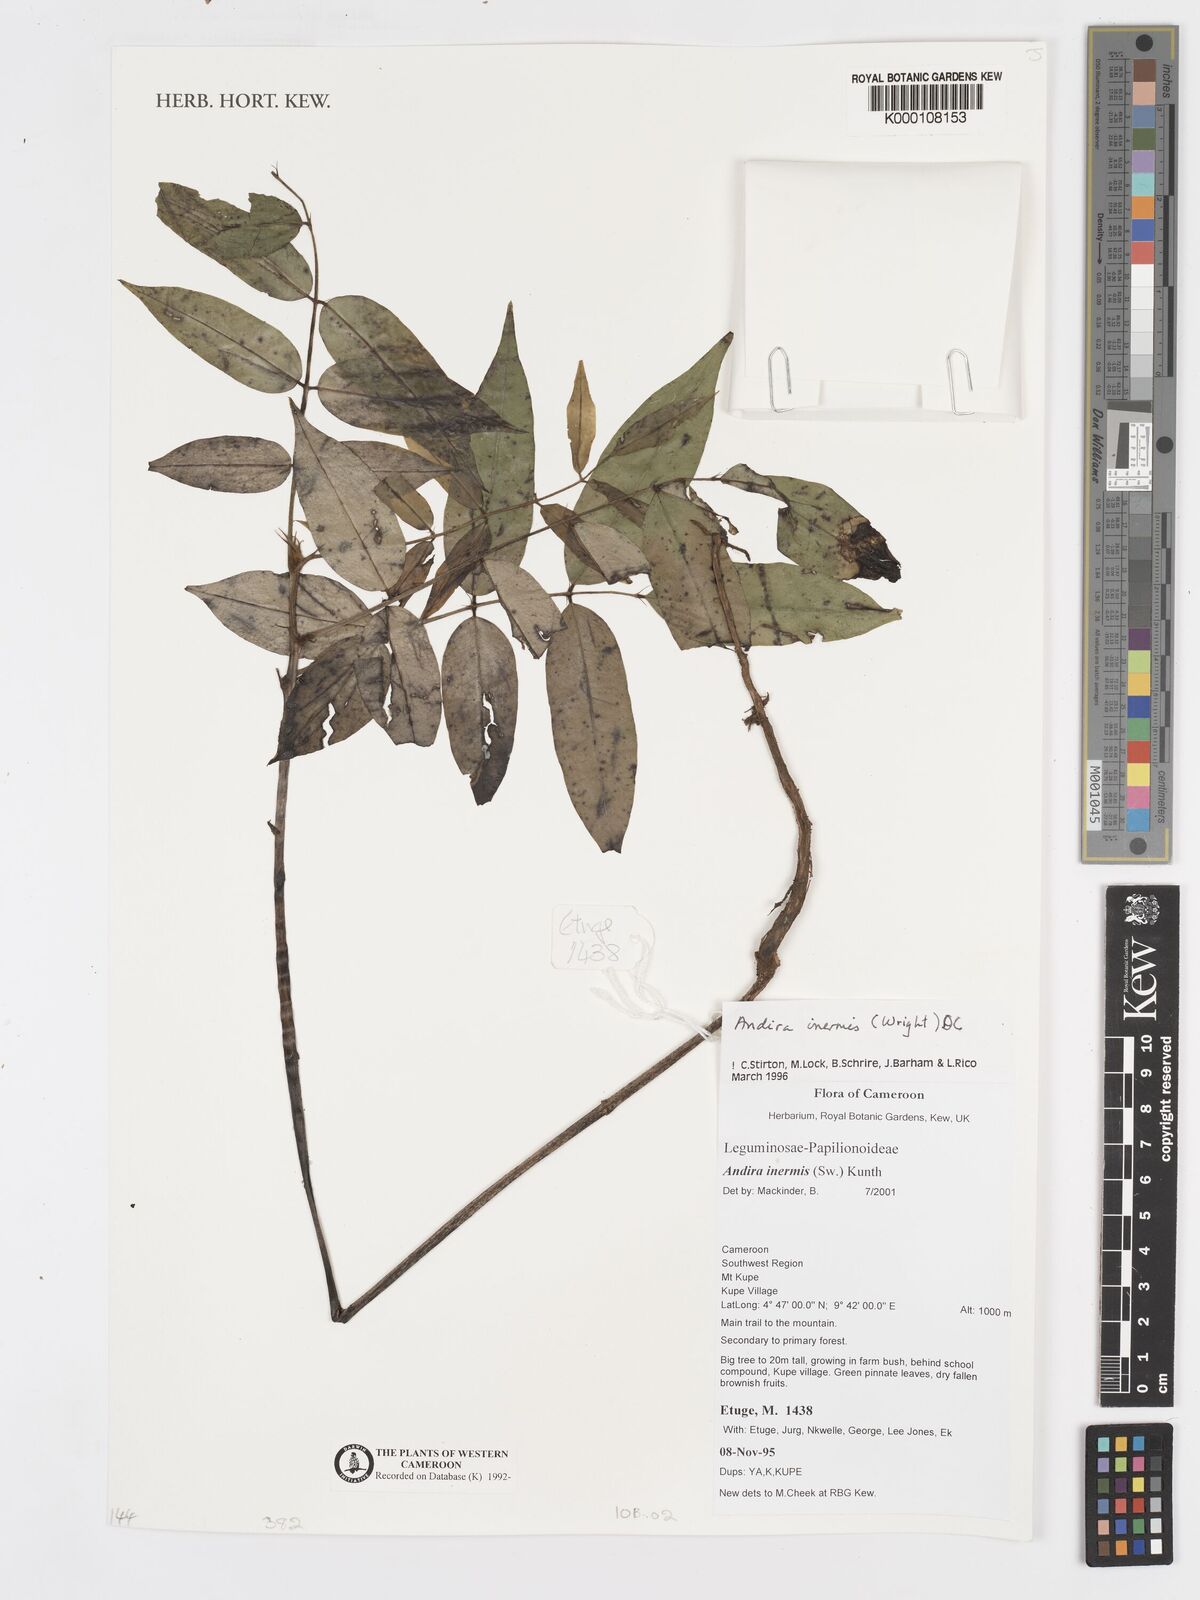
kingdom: Plantae
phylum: Tracheophyta
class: Magnoliopsida
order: Fabales
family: Fabaceae
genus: Andira
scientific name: Andira
